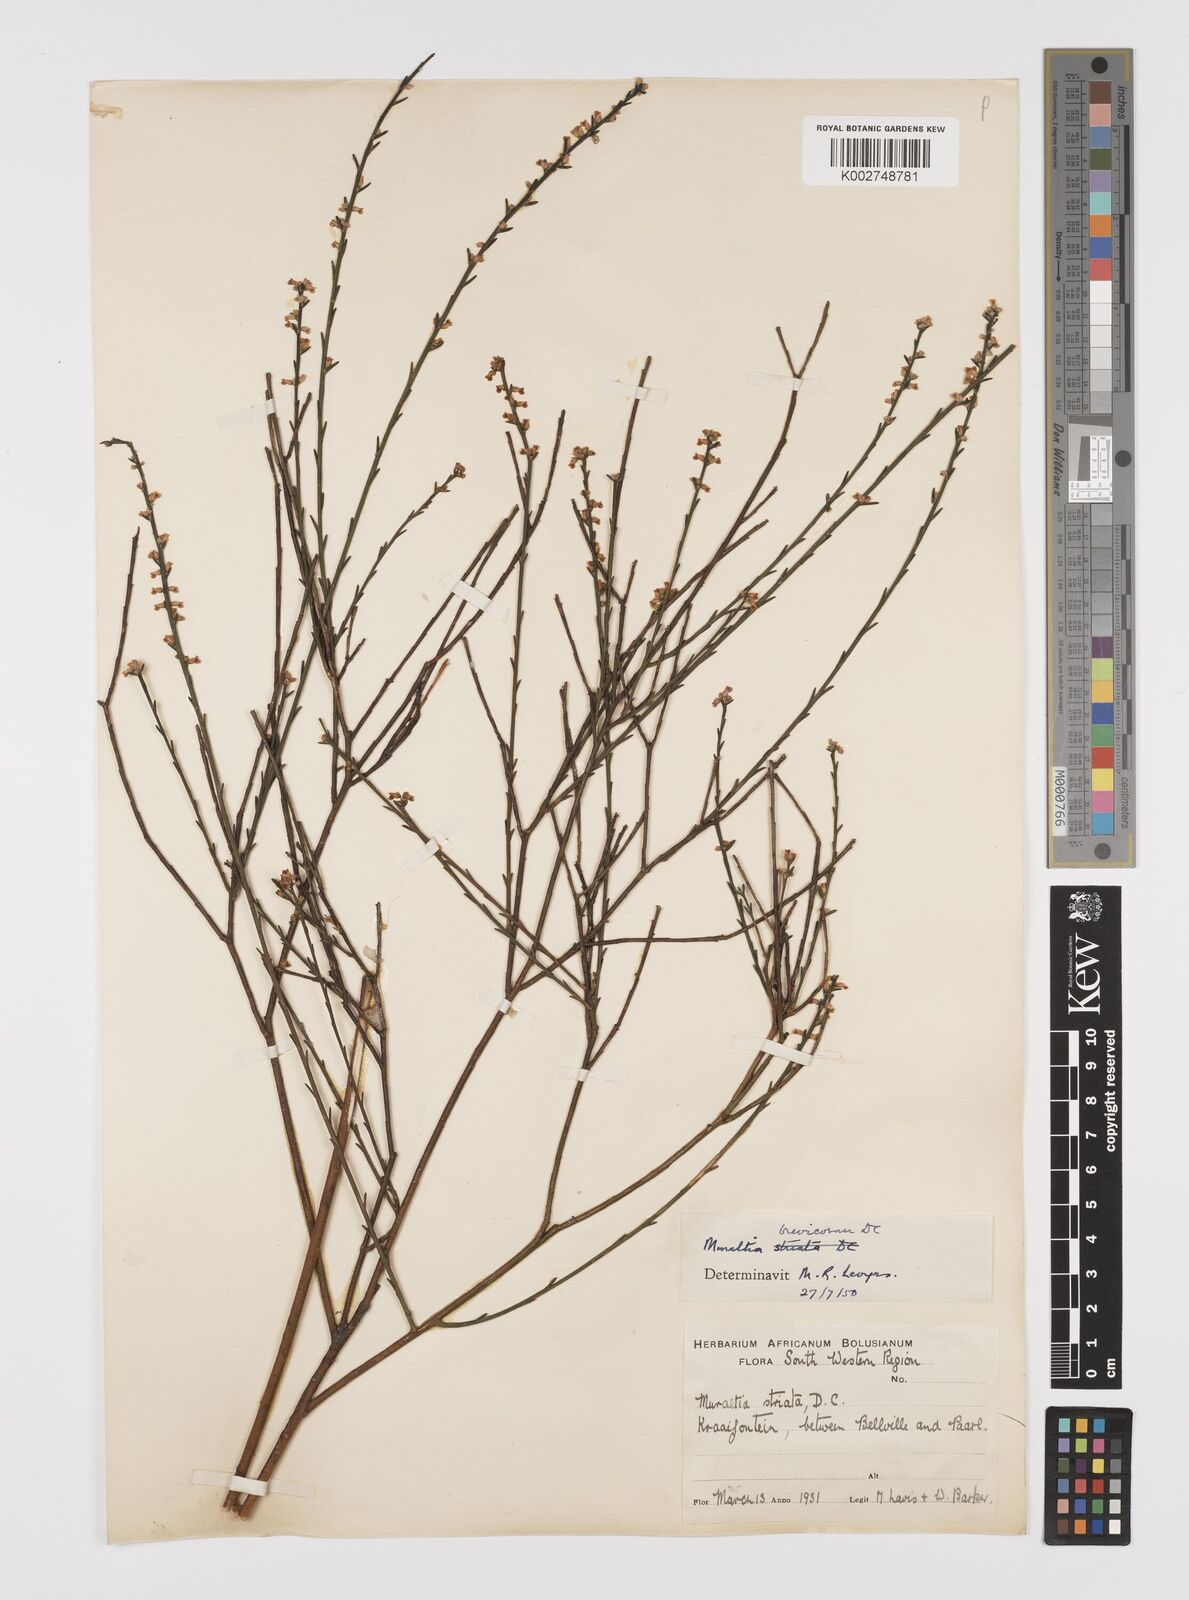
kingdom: Plantae
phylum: Tracheophyta
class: Magnoliopsida
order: Fabales
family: Polygalaceae
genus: Muraltia
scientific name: Muraltia striata
